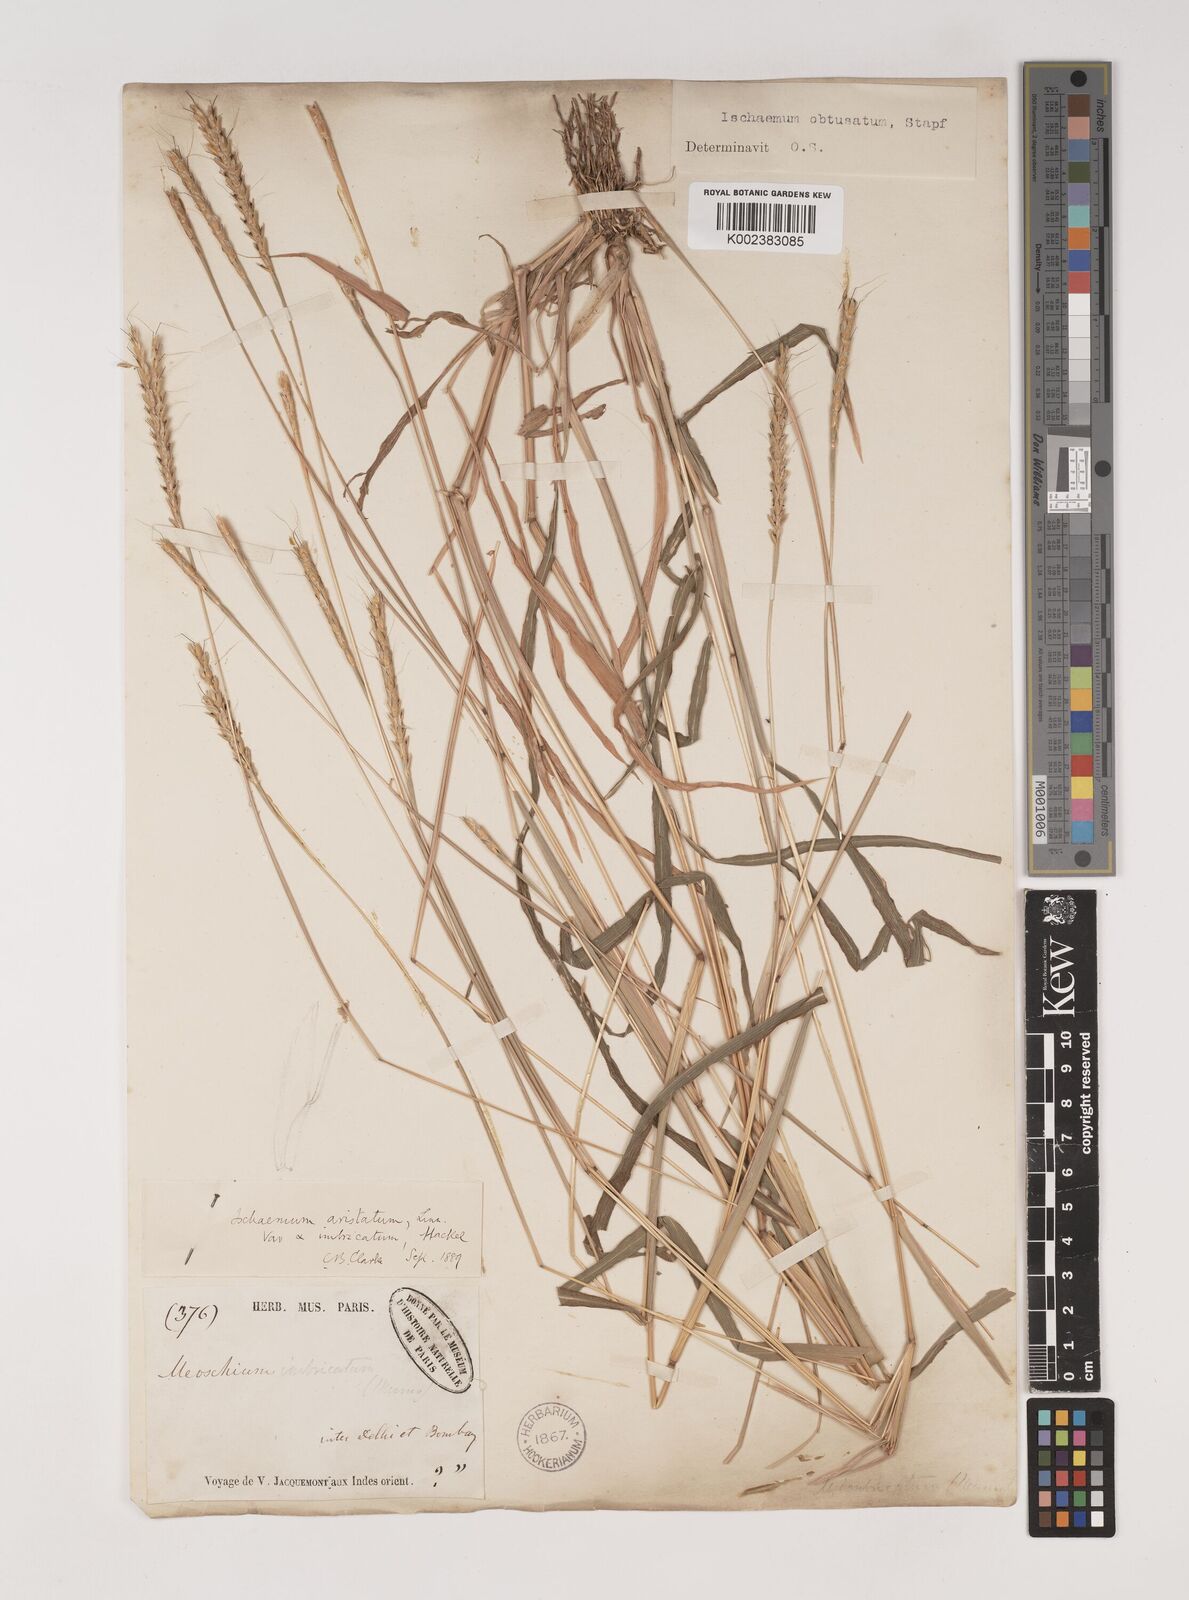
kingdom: Plantae
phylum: Tracheophyta
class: Liliopsida
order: Poales
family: Poaceae
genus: Ischaemum
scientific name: Ischaemum molle
